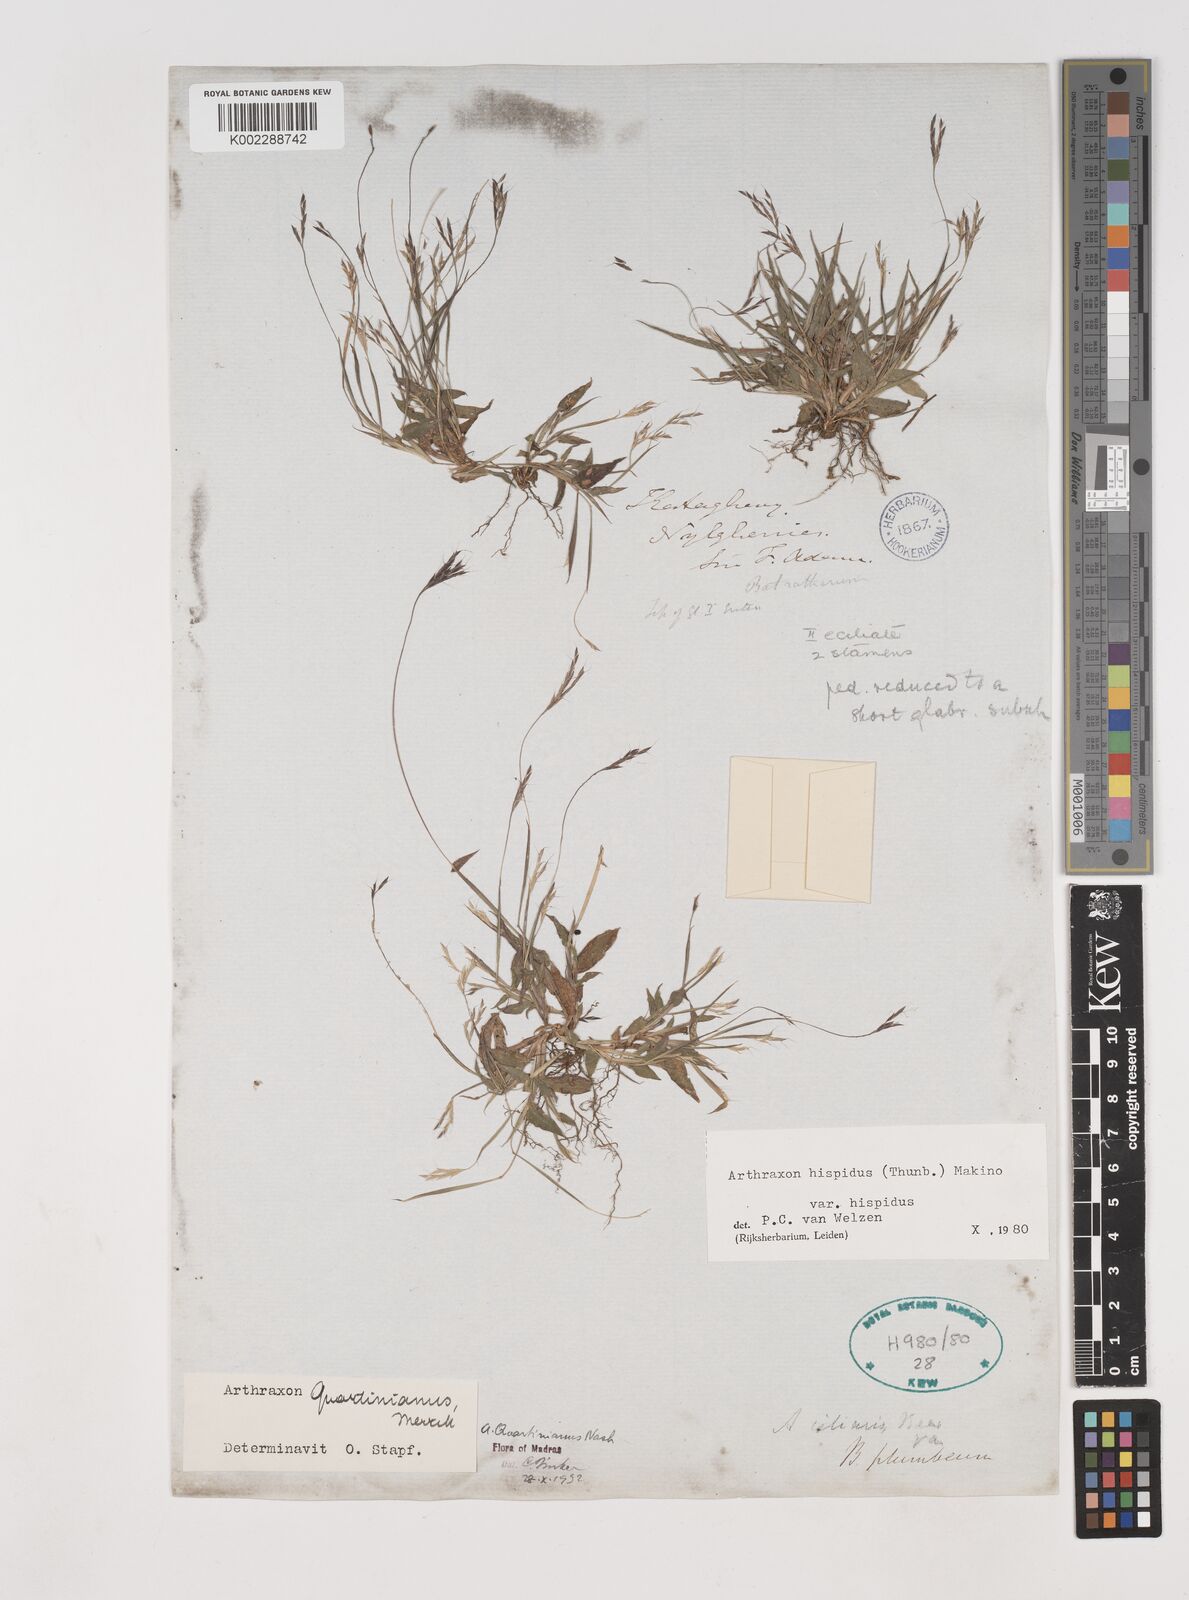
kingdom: Plantae
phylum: Tracheophyta
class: Liliopsida
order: Poales
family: Poaceae
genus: Arthraxon
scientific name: Arthraxon hispidus
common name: Small carpgrass
